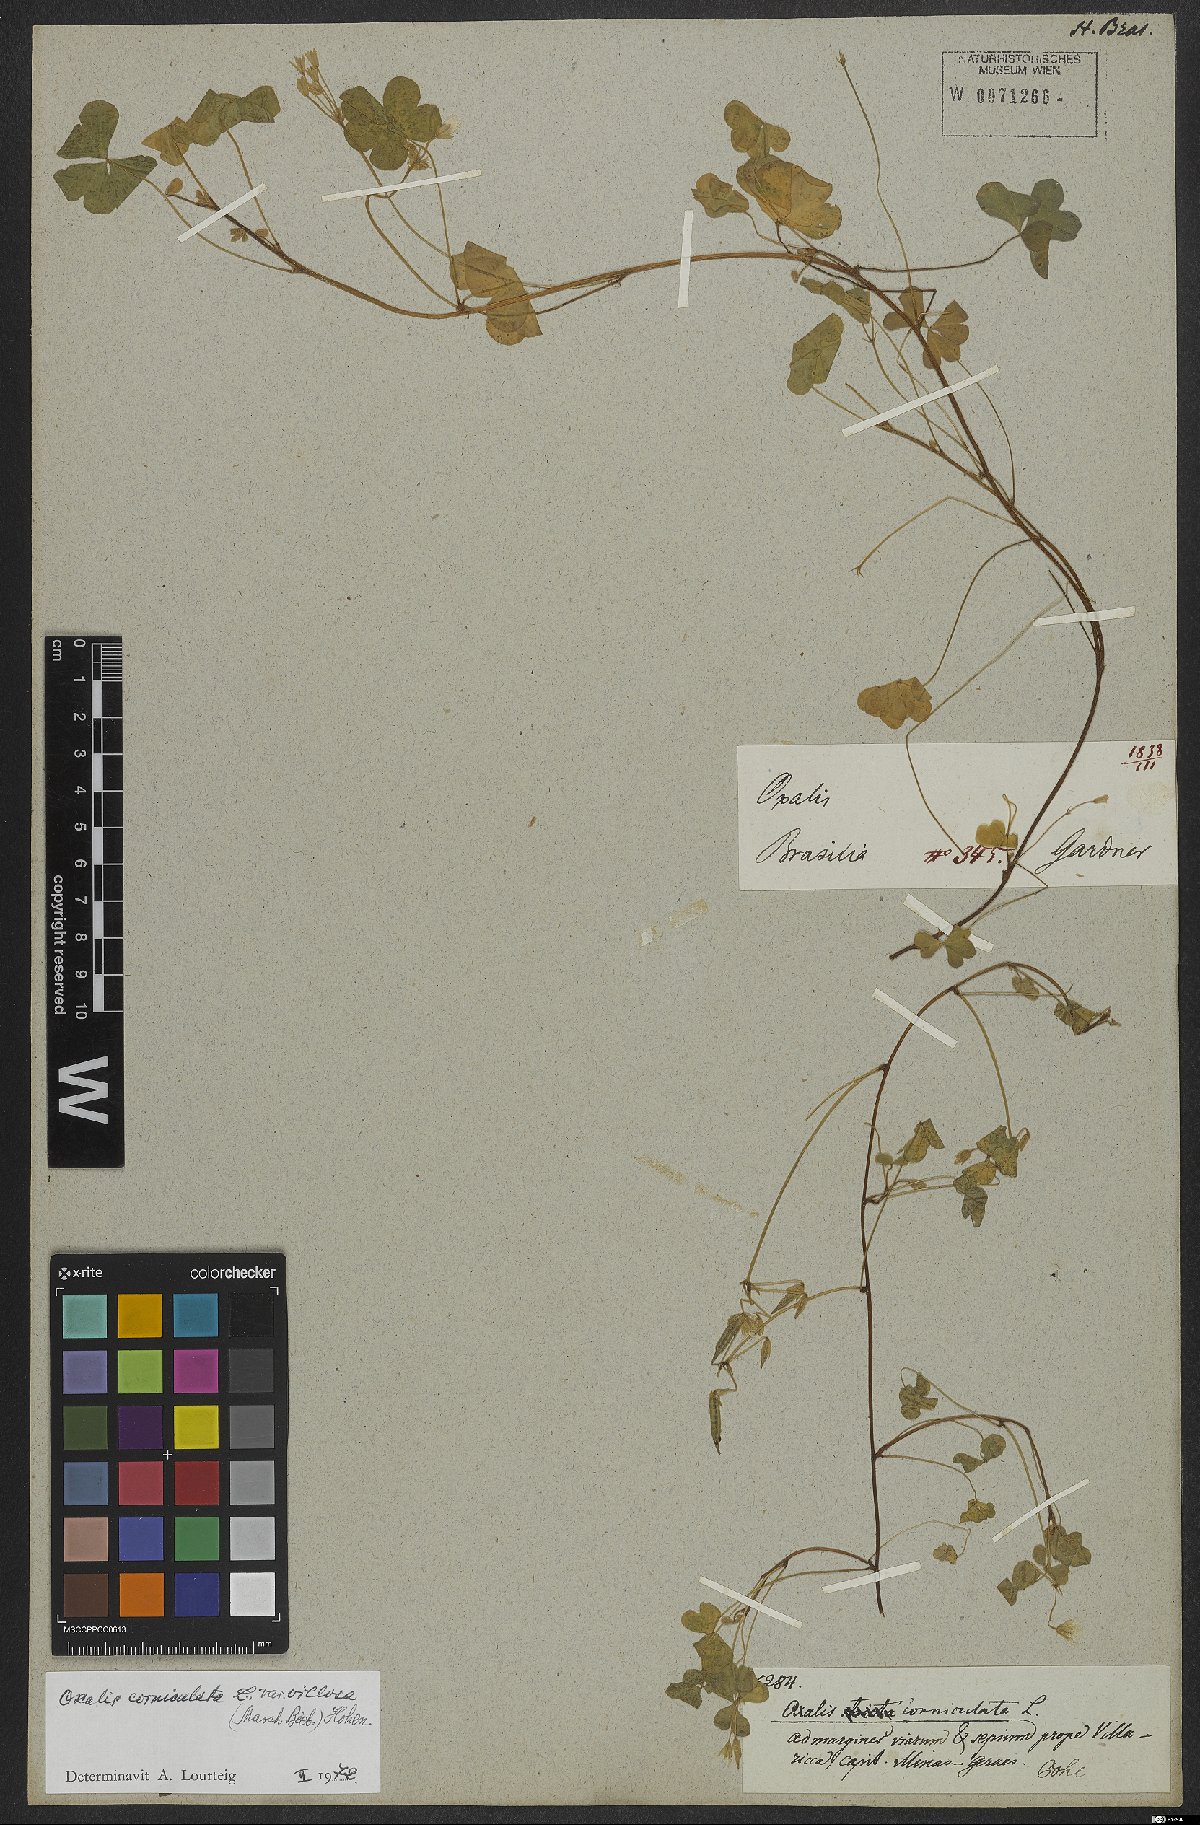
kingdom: Plantae
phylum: Tracheophyta
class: Magnoliopsida
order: Oxalidales
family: Oxalidaceae
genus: Oxalis
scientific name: Oxalis corniculata
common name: Procumbent yellow-sorrel
